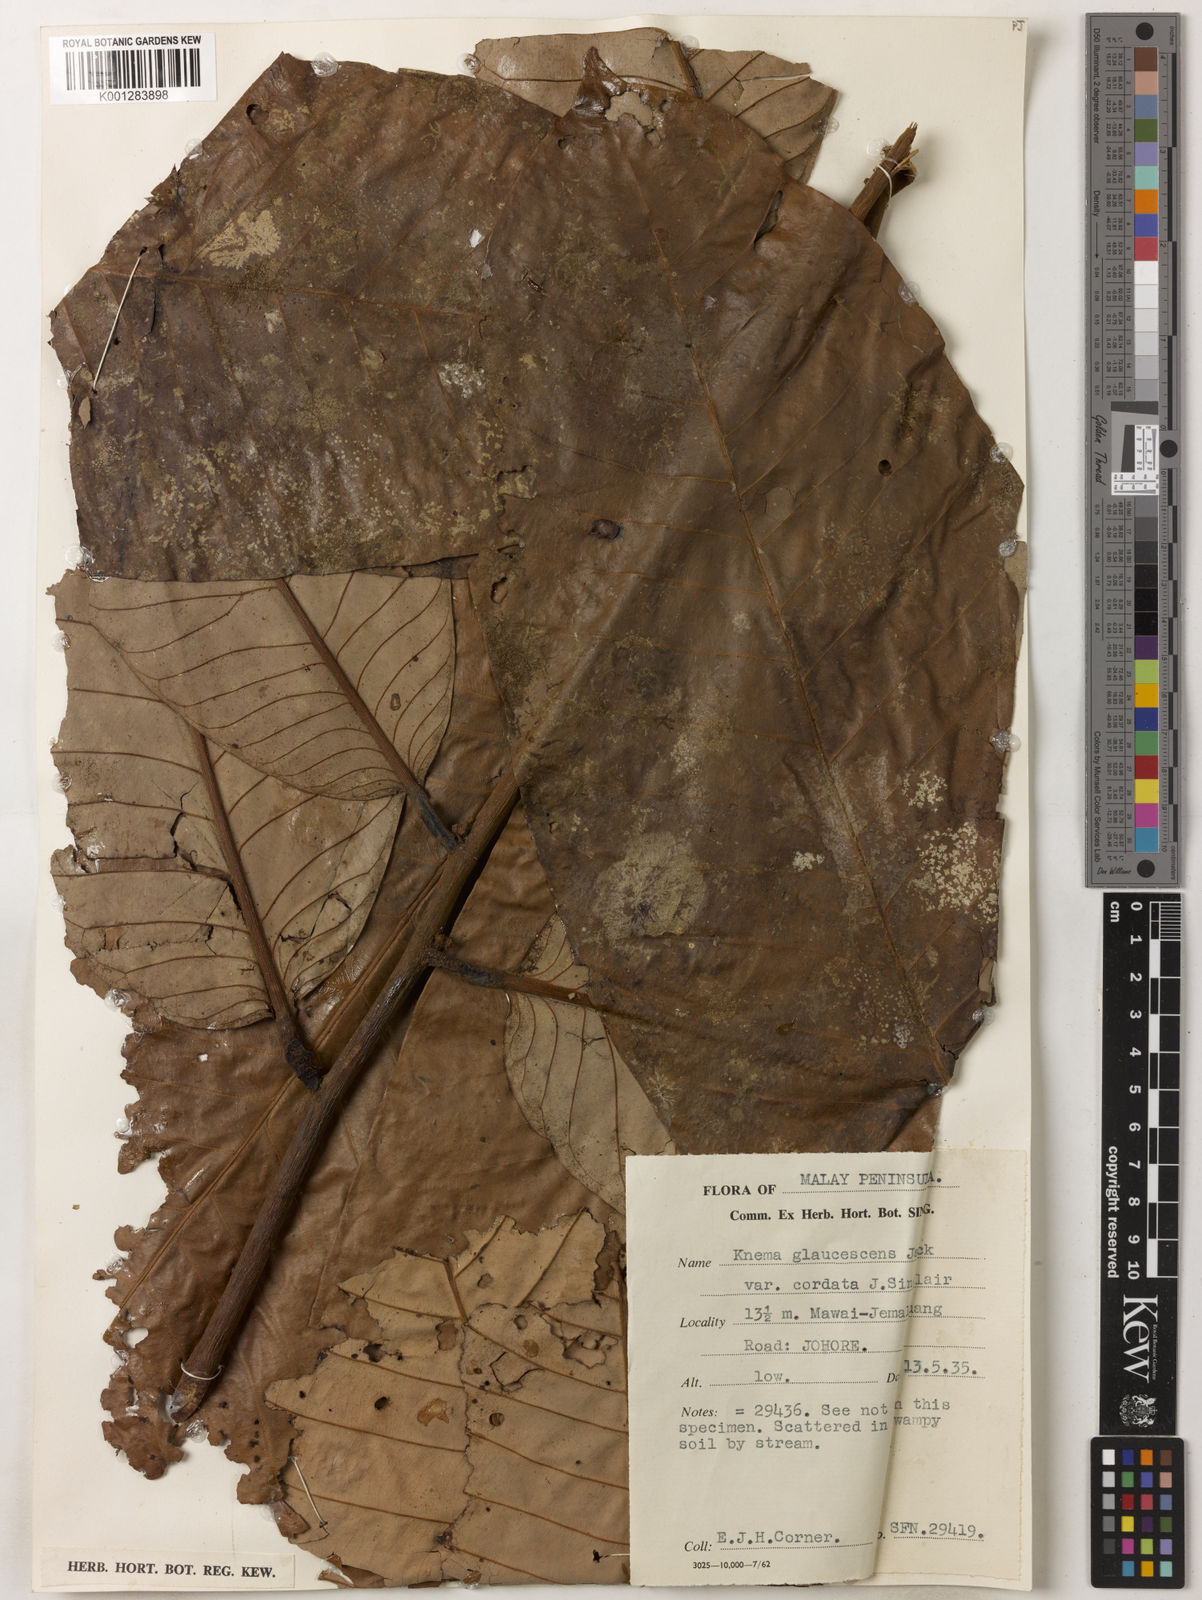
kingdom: Plantae
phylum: Tracheophyta
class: Magnoliopsida
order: Magnoliales
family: Myristicaceae
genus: Knema
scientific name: Knema
